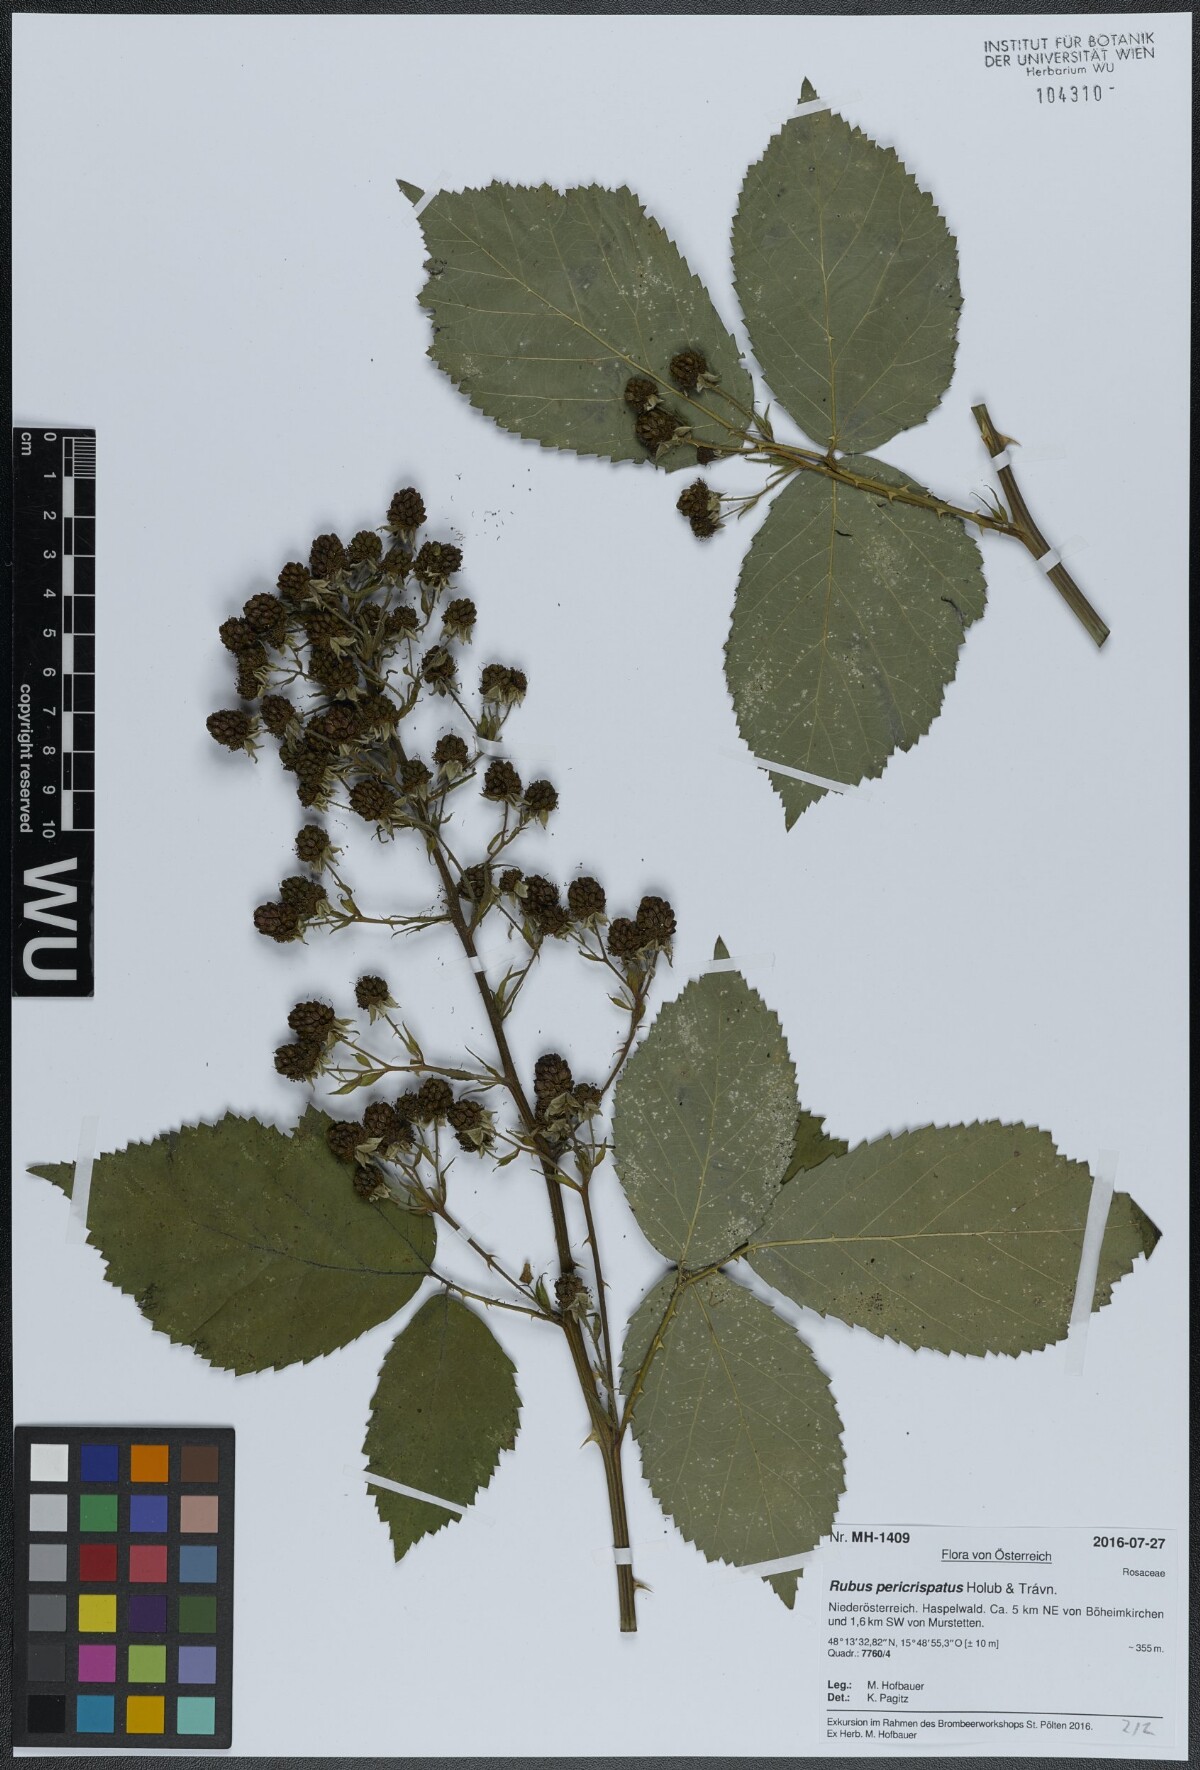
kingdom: Plantae
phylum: Tracheophyta
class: Magnoliopsida
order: Rosales
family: Rosaceae
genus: Rubus
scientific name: Rubus pericrispatus
